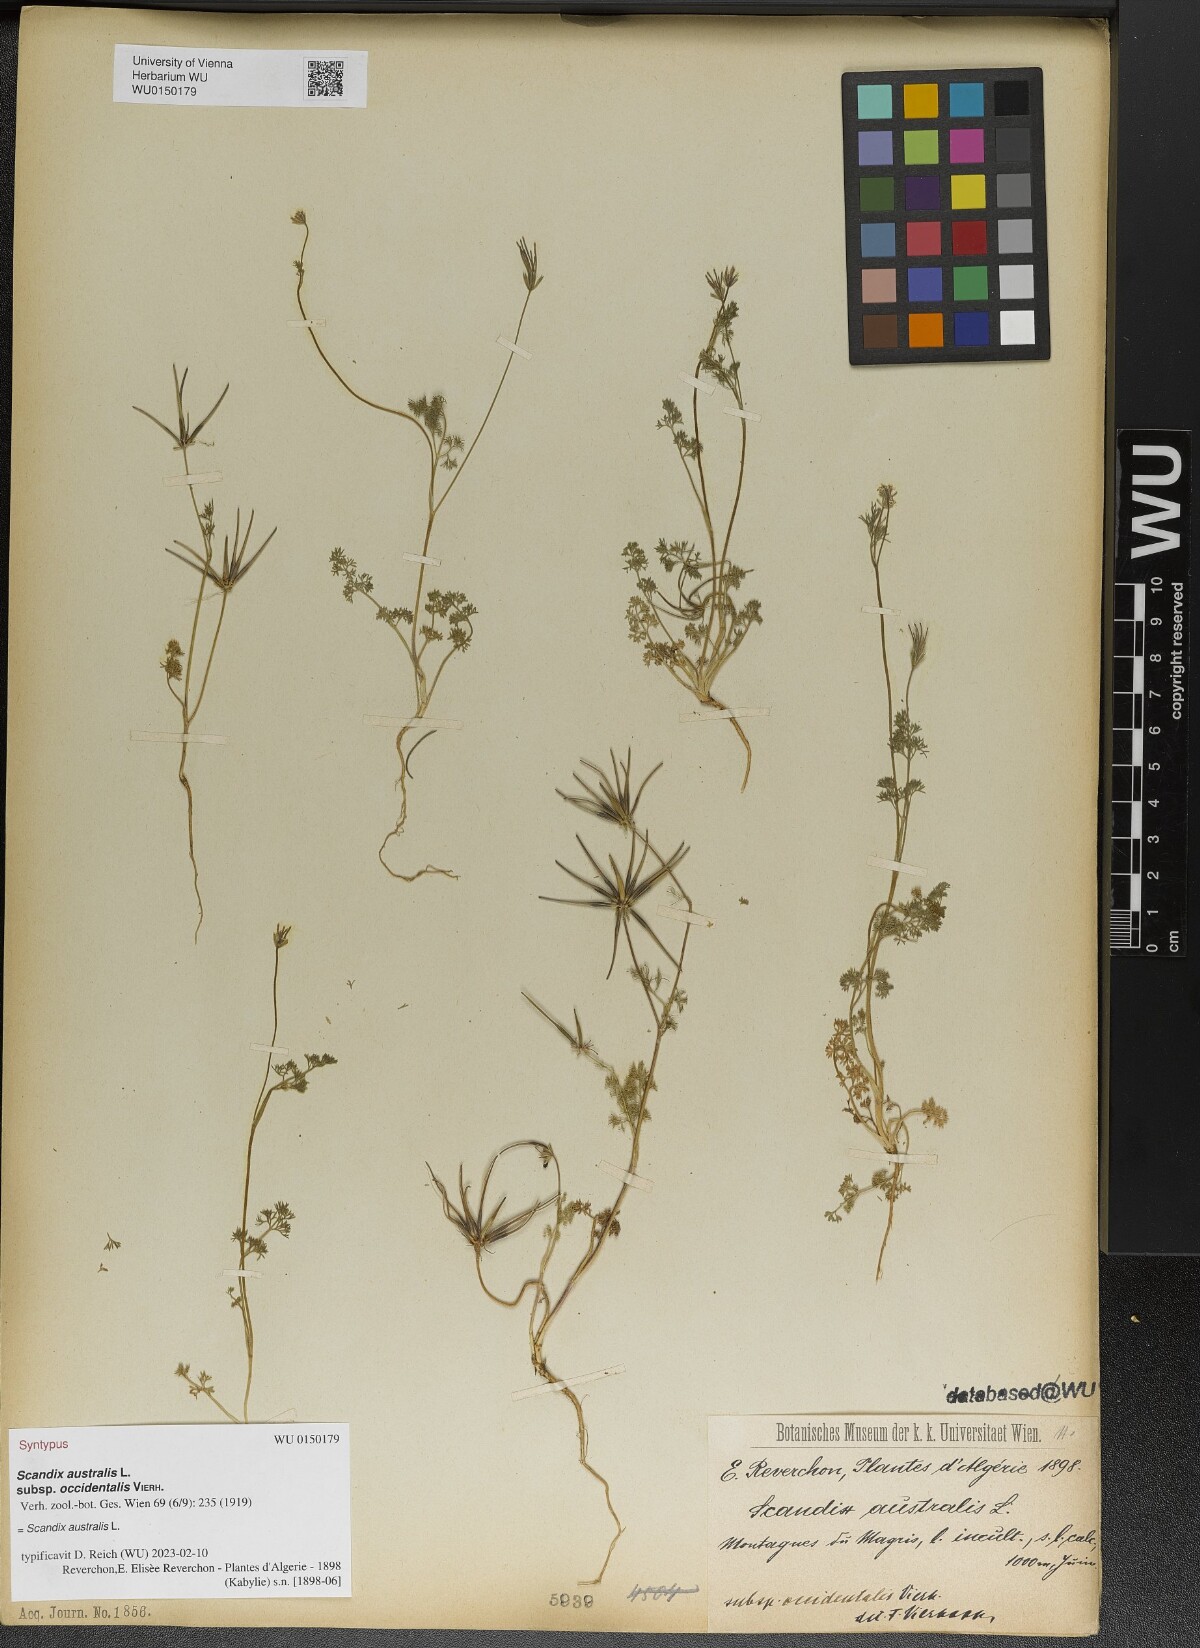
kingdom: Plantae
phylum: Tracheophyta
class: Magnoliopsida
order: Apiales
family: Apiaceae
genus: Scandix
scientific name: Scandix australis
